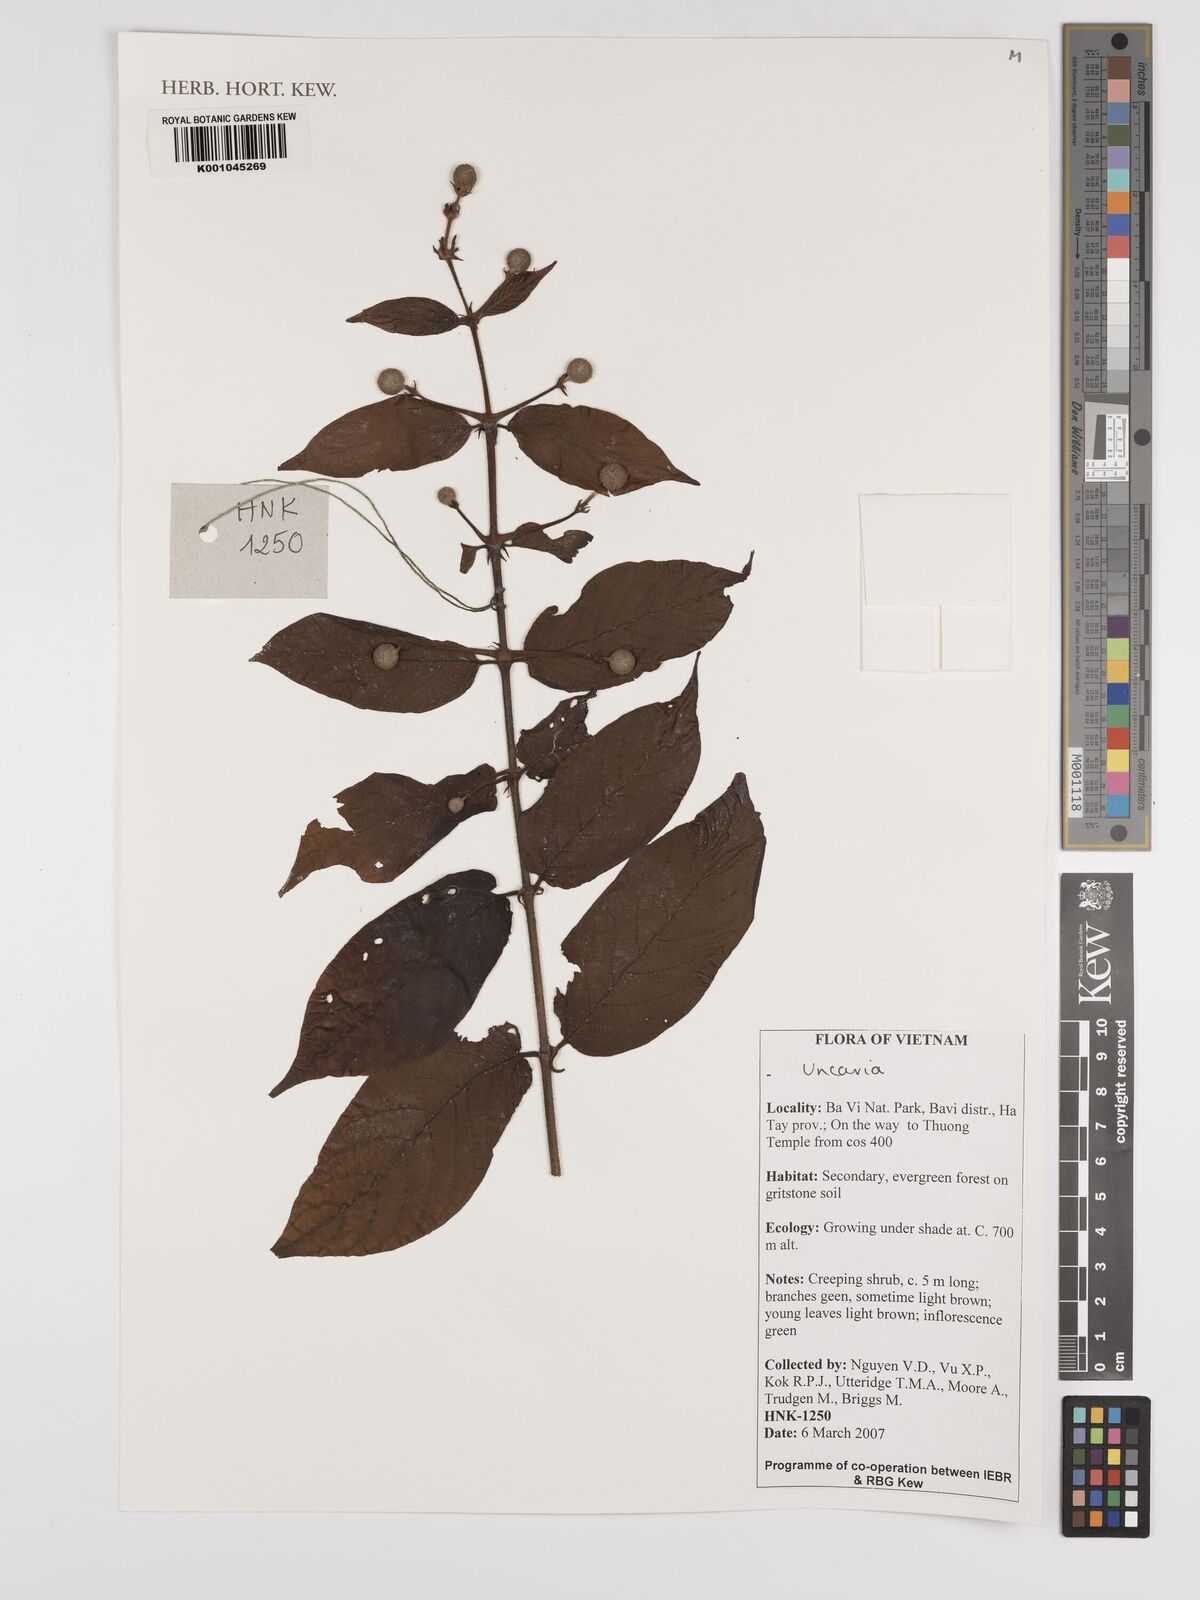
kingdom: Plantae
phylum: Tracheophyta
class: Magnoliopsida
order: Gentianales
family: Rubiaceae
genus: Uncaria
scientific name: Uncaria
